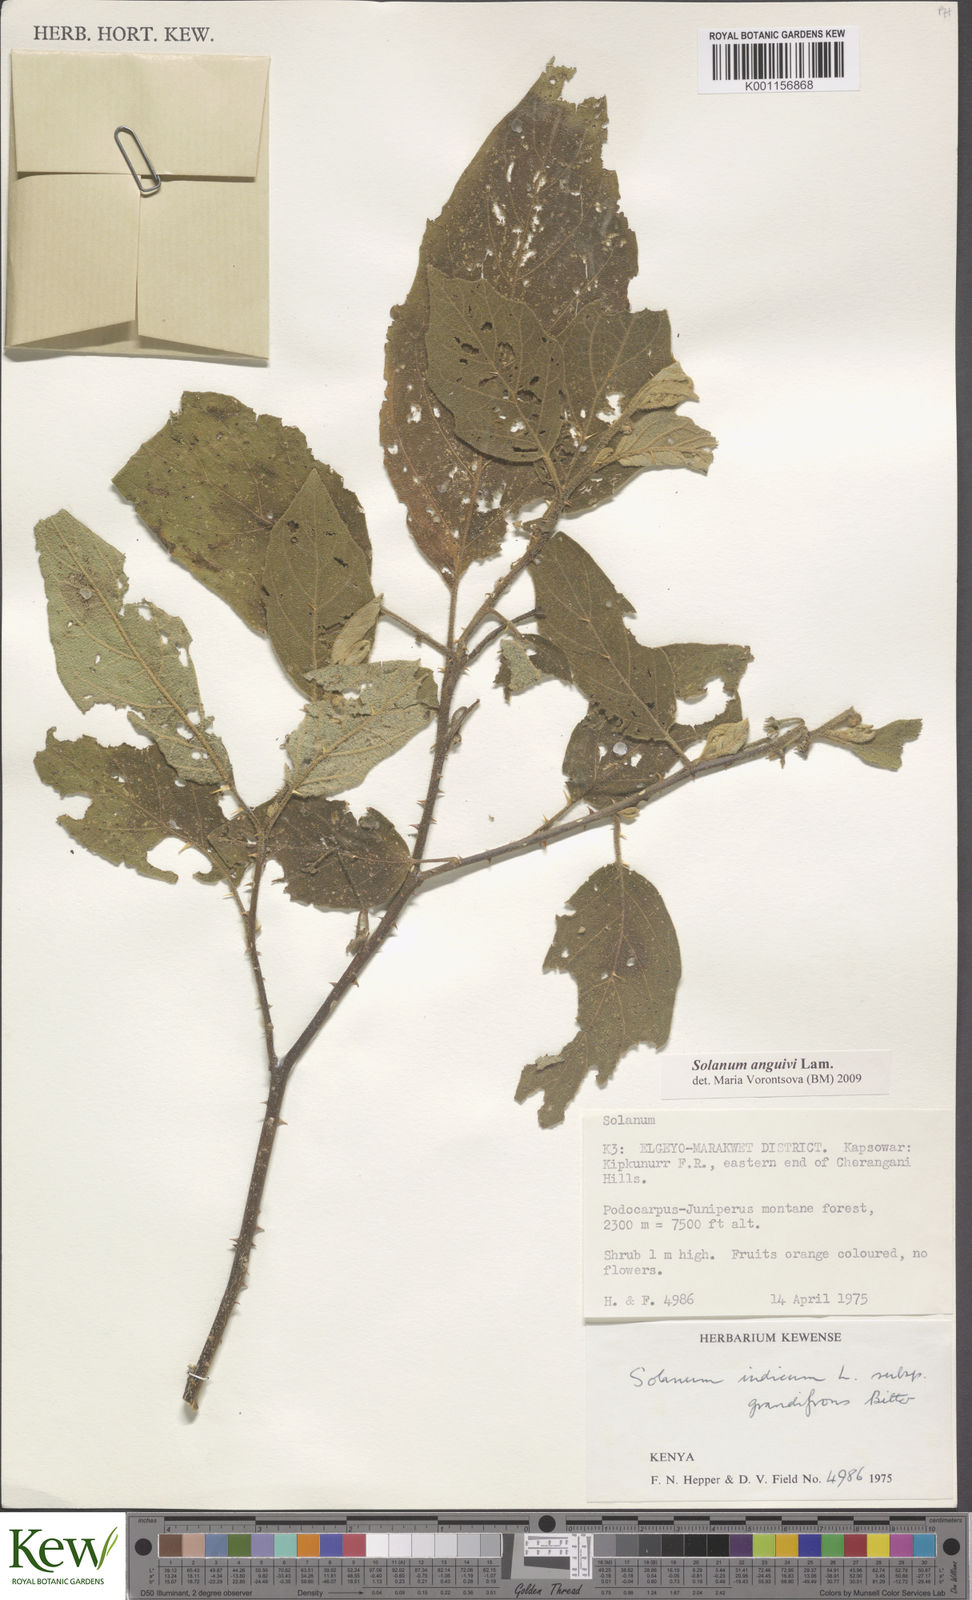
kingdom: Plantae
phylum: Tracheophyta
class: Magnoliopsida
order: Solanales
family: Solanaceae
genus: Solanum
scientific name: Solanum anguivi
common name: Forest bitterberry
